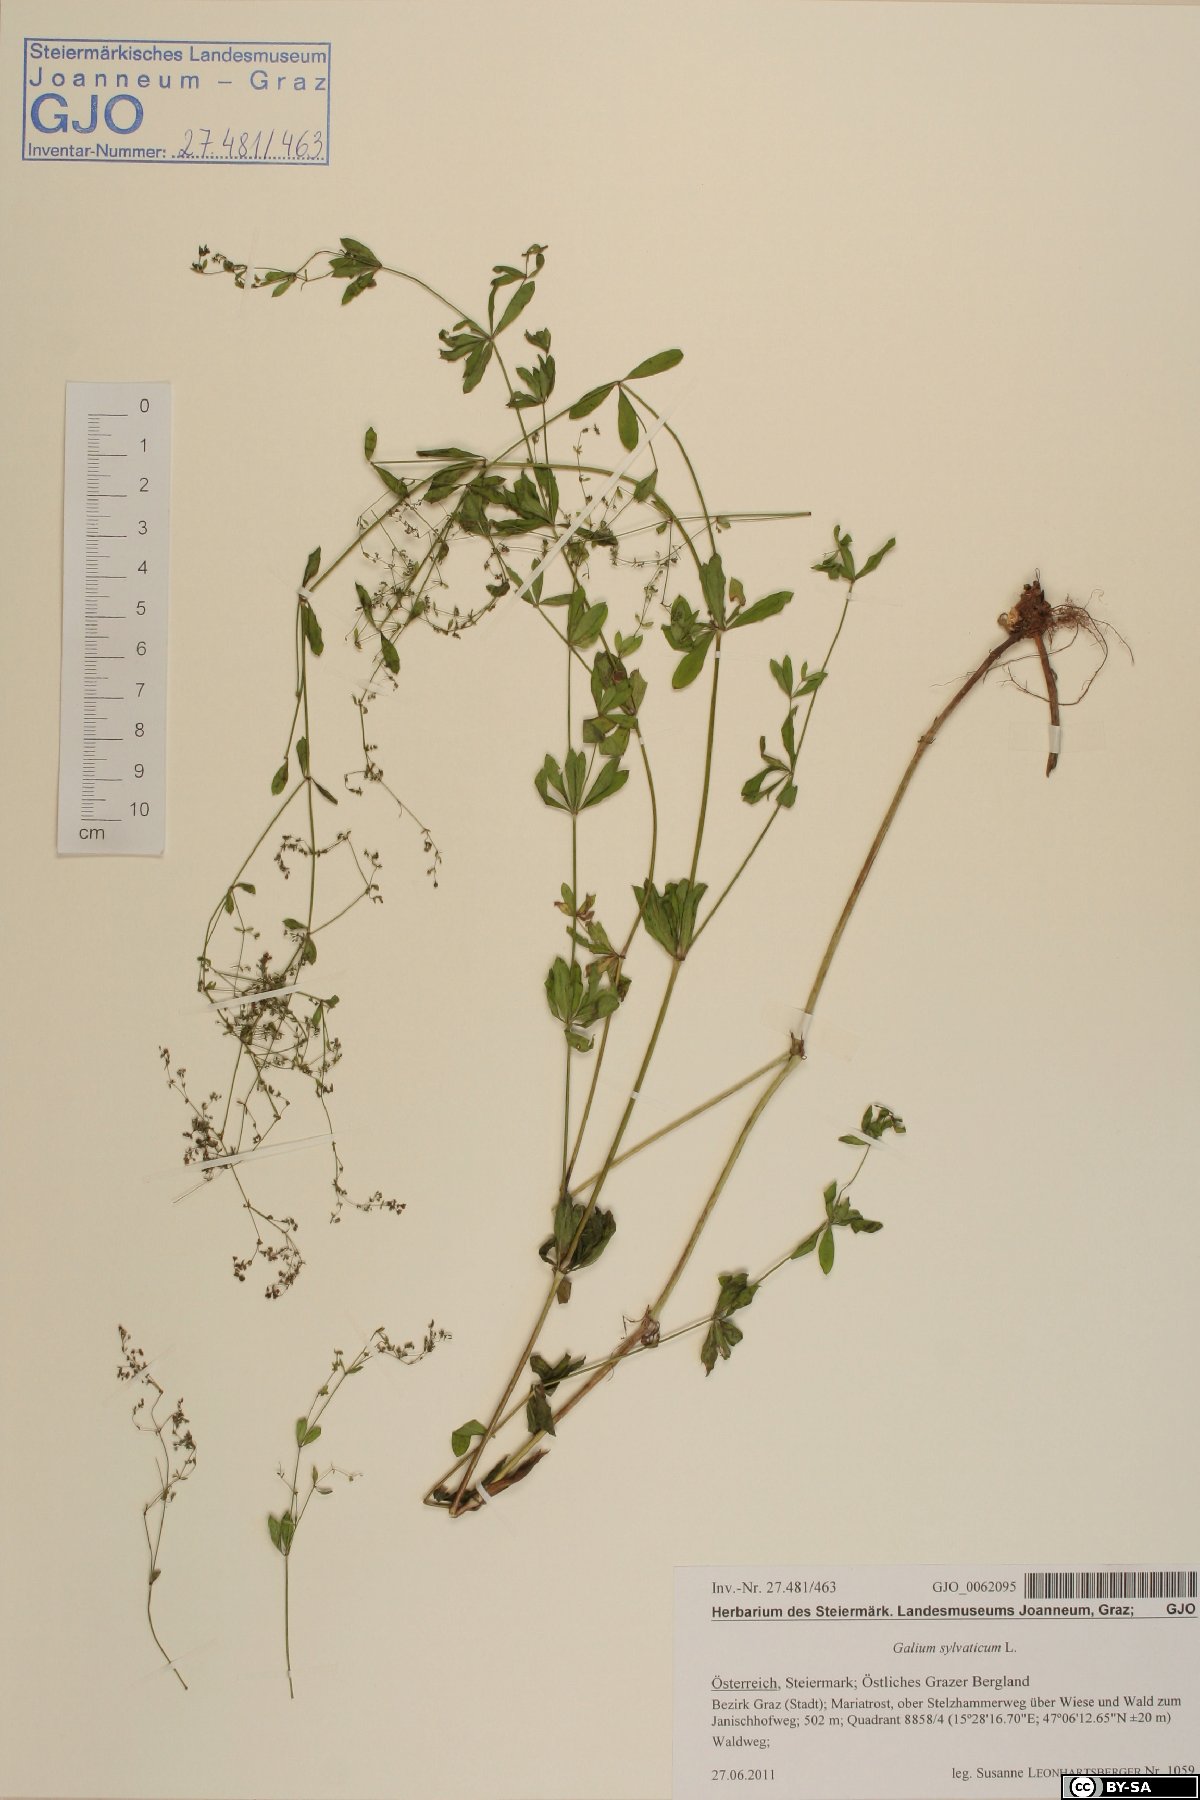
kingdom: Plantae
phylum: Tracheophyta
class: Magnoliopsida
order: Gentianales
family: Rubiaceae
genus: Galium
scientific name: Galium sylvaticum
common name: Wood bedstraw
